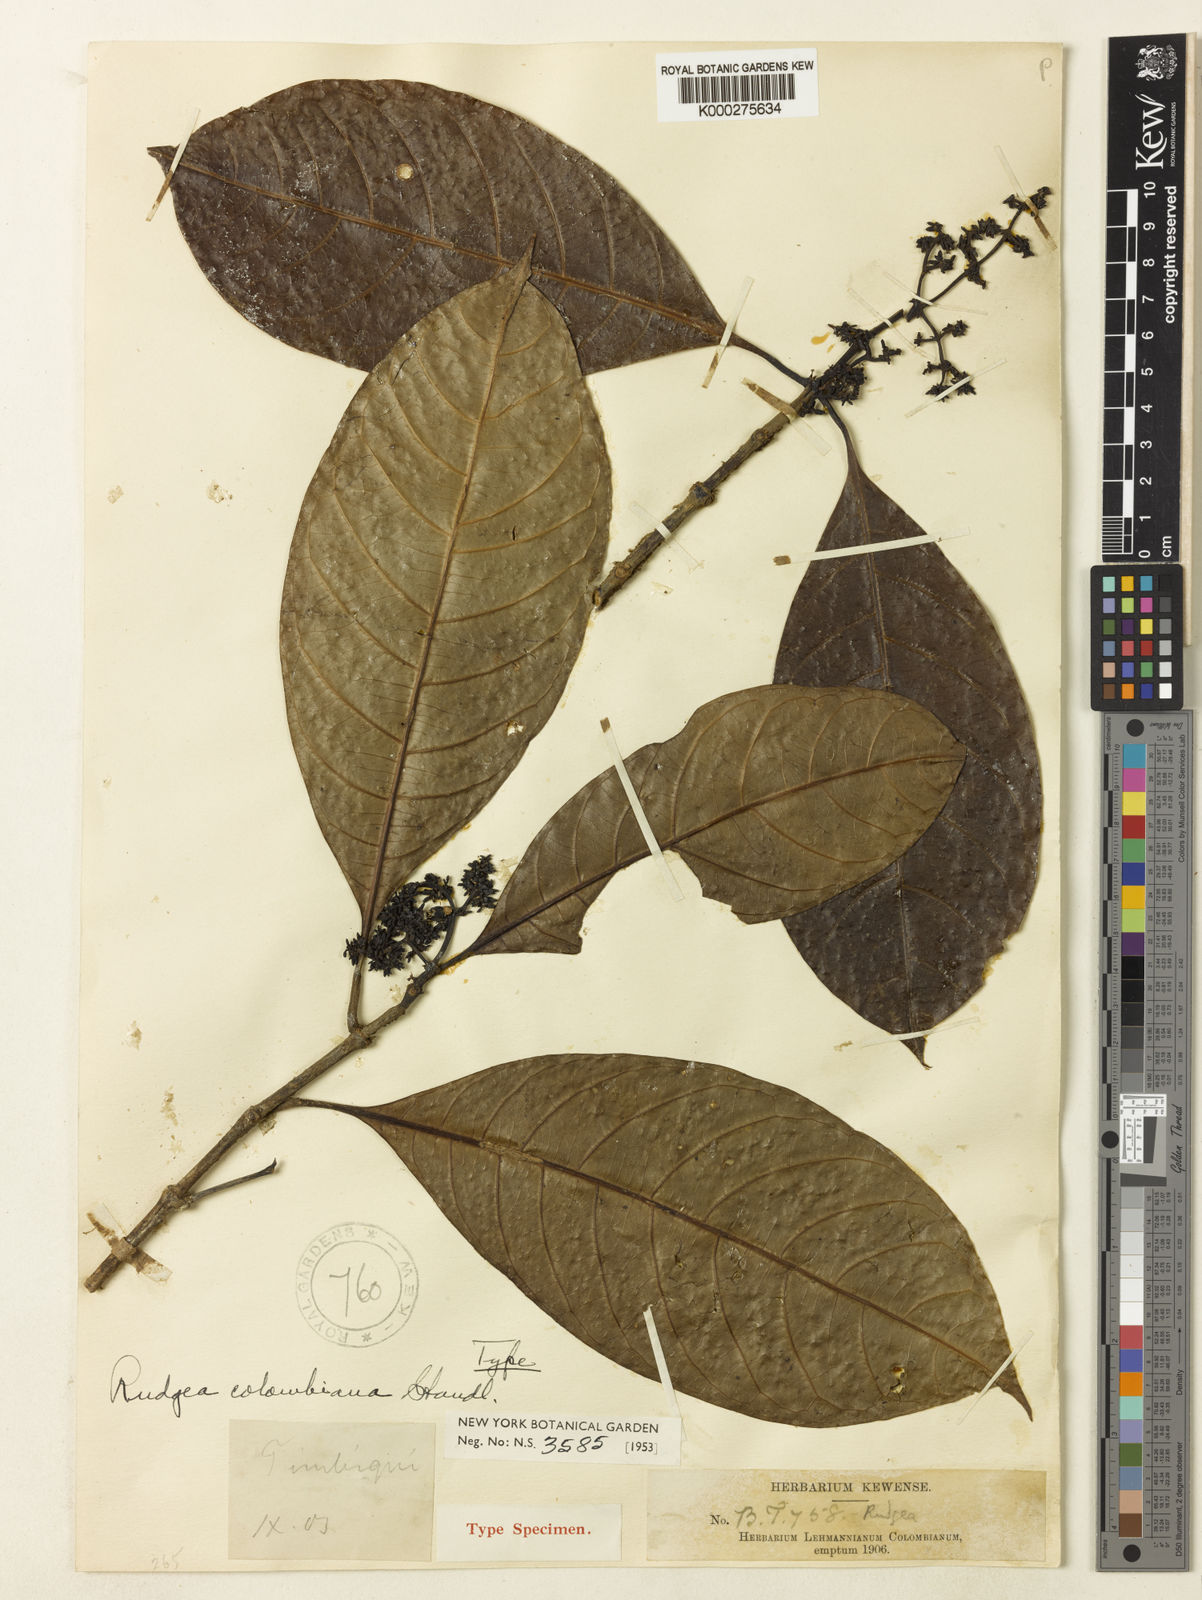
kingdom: Plantae
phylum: Tracheophyta
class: Magnoliopsida
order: Gentianales
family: Rubiaceae
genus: Rudgea
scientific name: Rudgea colombiana
